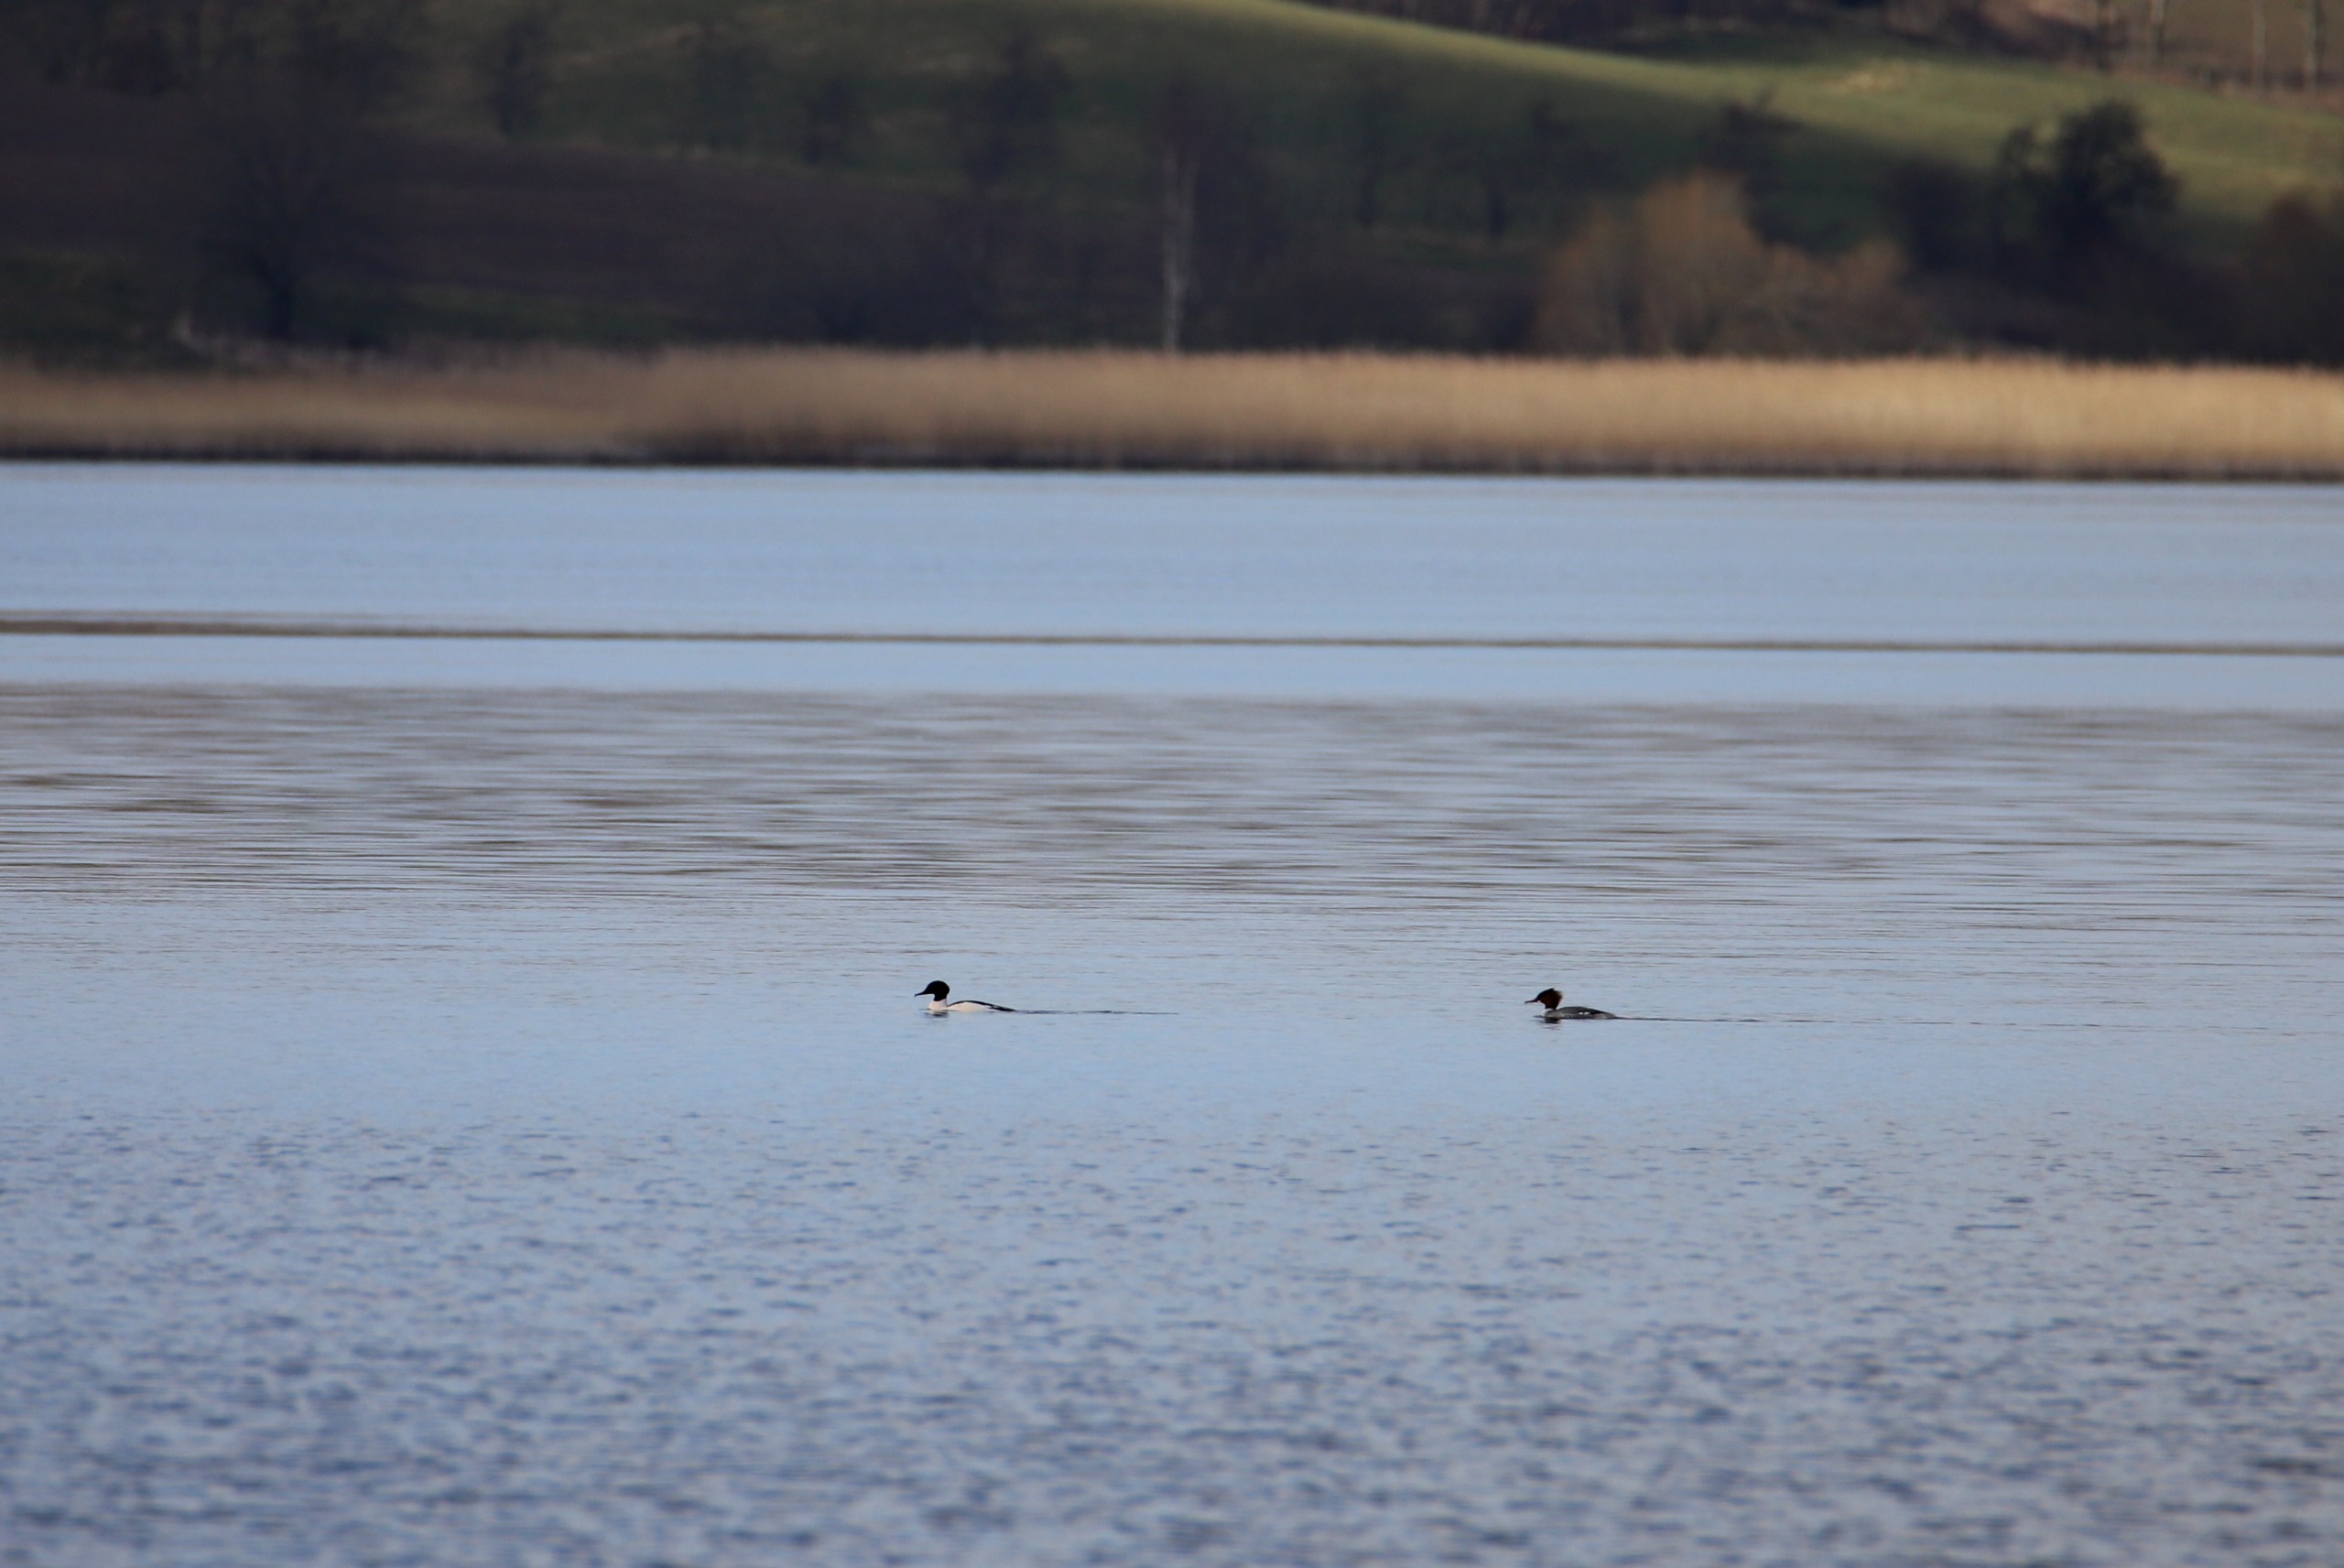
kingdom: Animalia
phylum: Chordata
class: Aves
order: Anseriformes
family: Anatidae
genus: Mergus
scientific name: Mergus merganser
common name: Stor skallesluger
